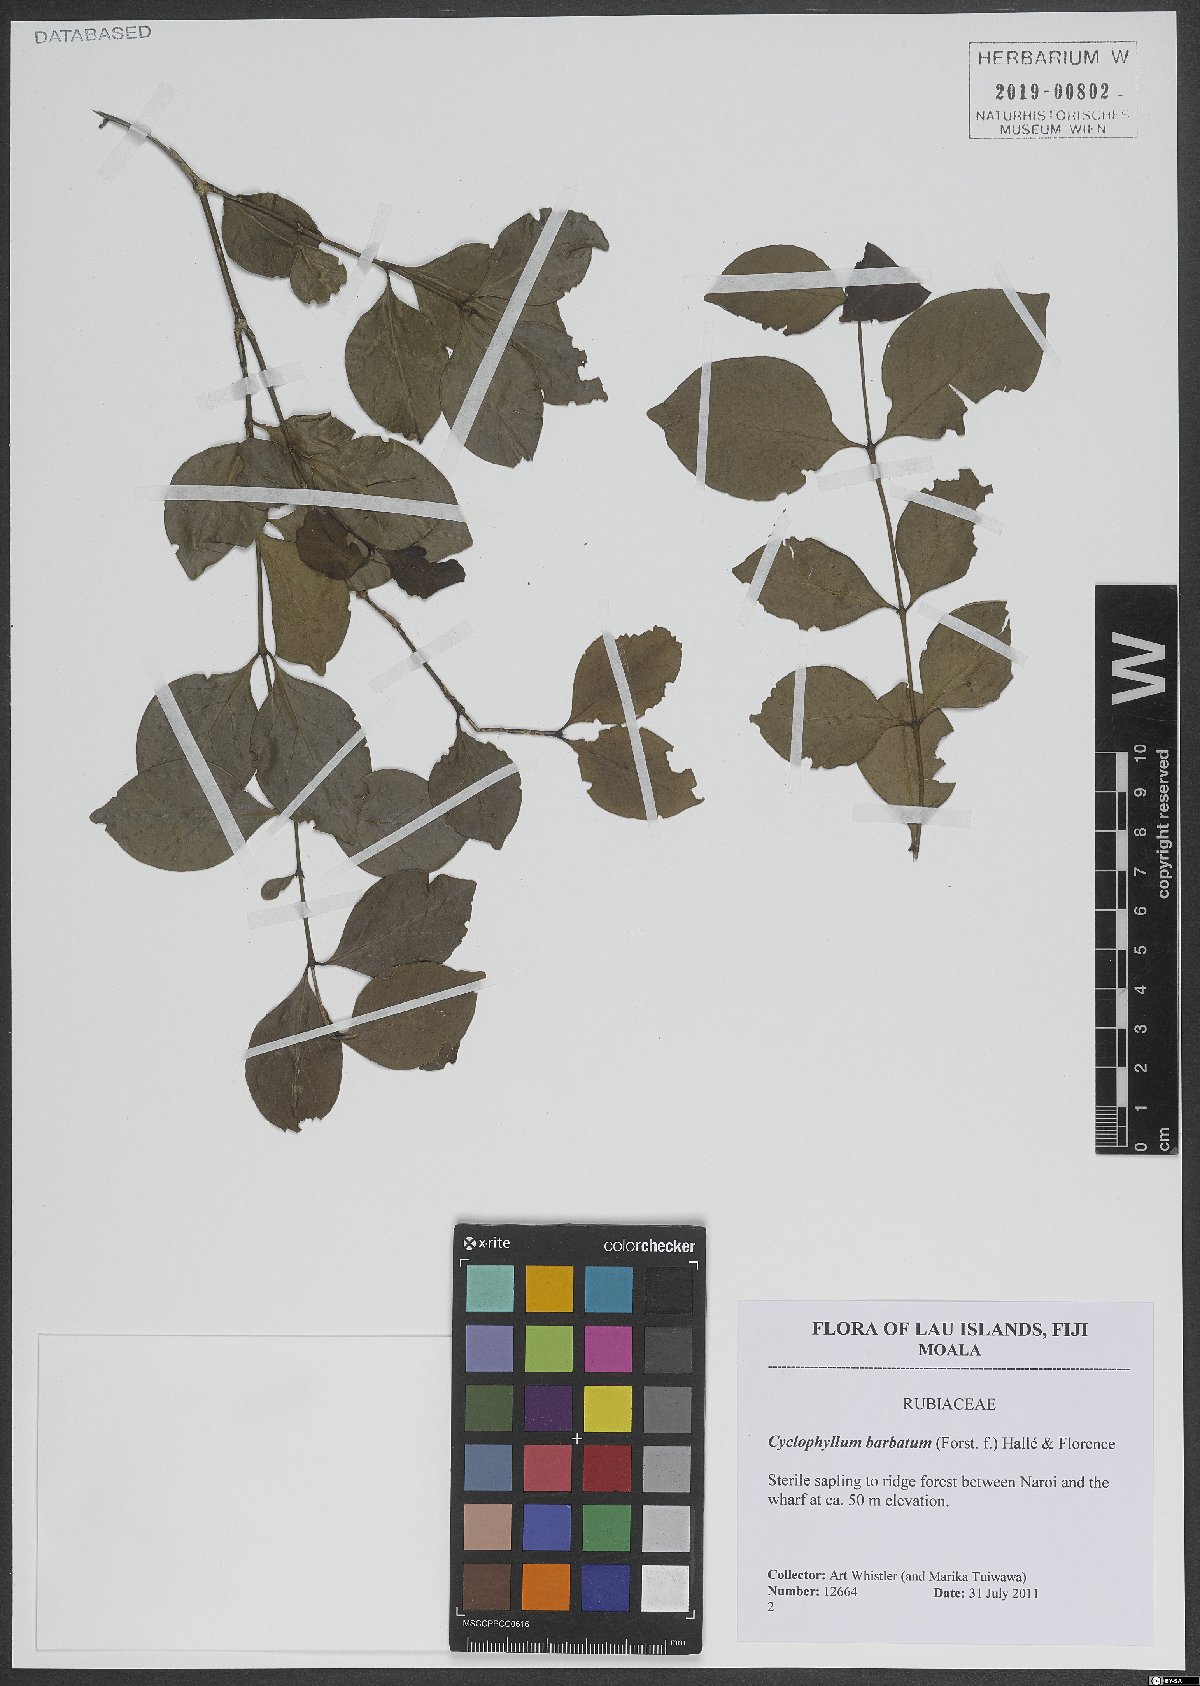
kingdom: Plantae
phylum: Tracheophyta
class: Magnoliopsida
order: Gentianales
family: Rubiaceae
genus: Cyclophyllum
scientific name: Cyclophyllum barbatum
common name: Cyclophyllum
